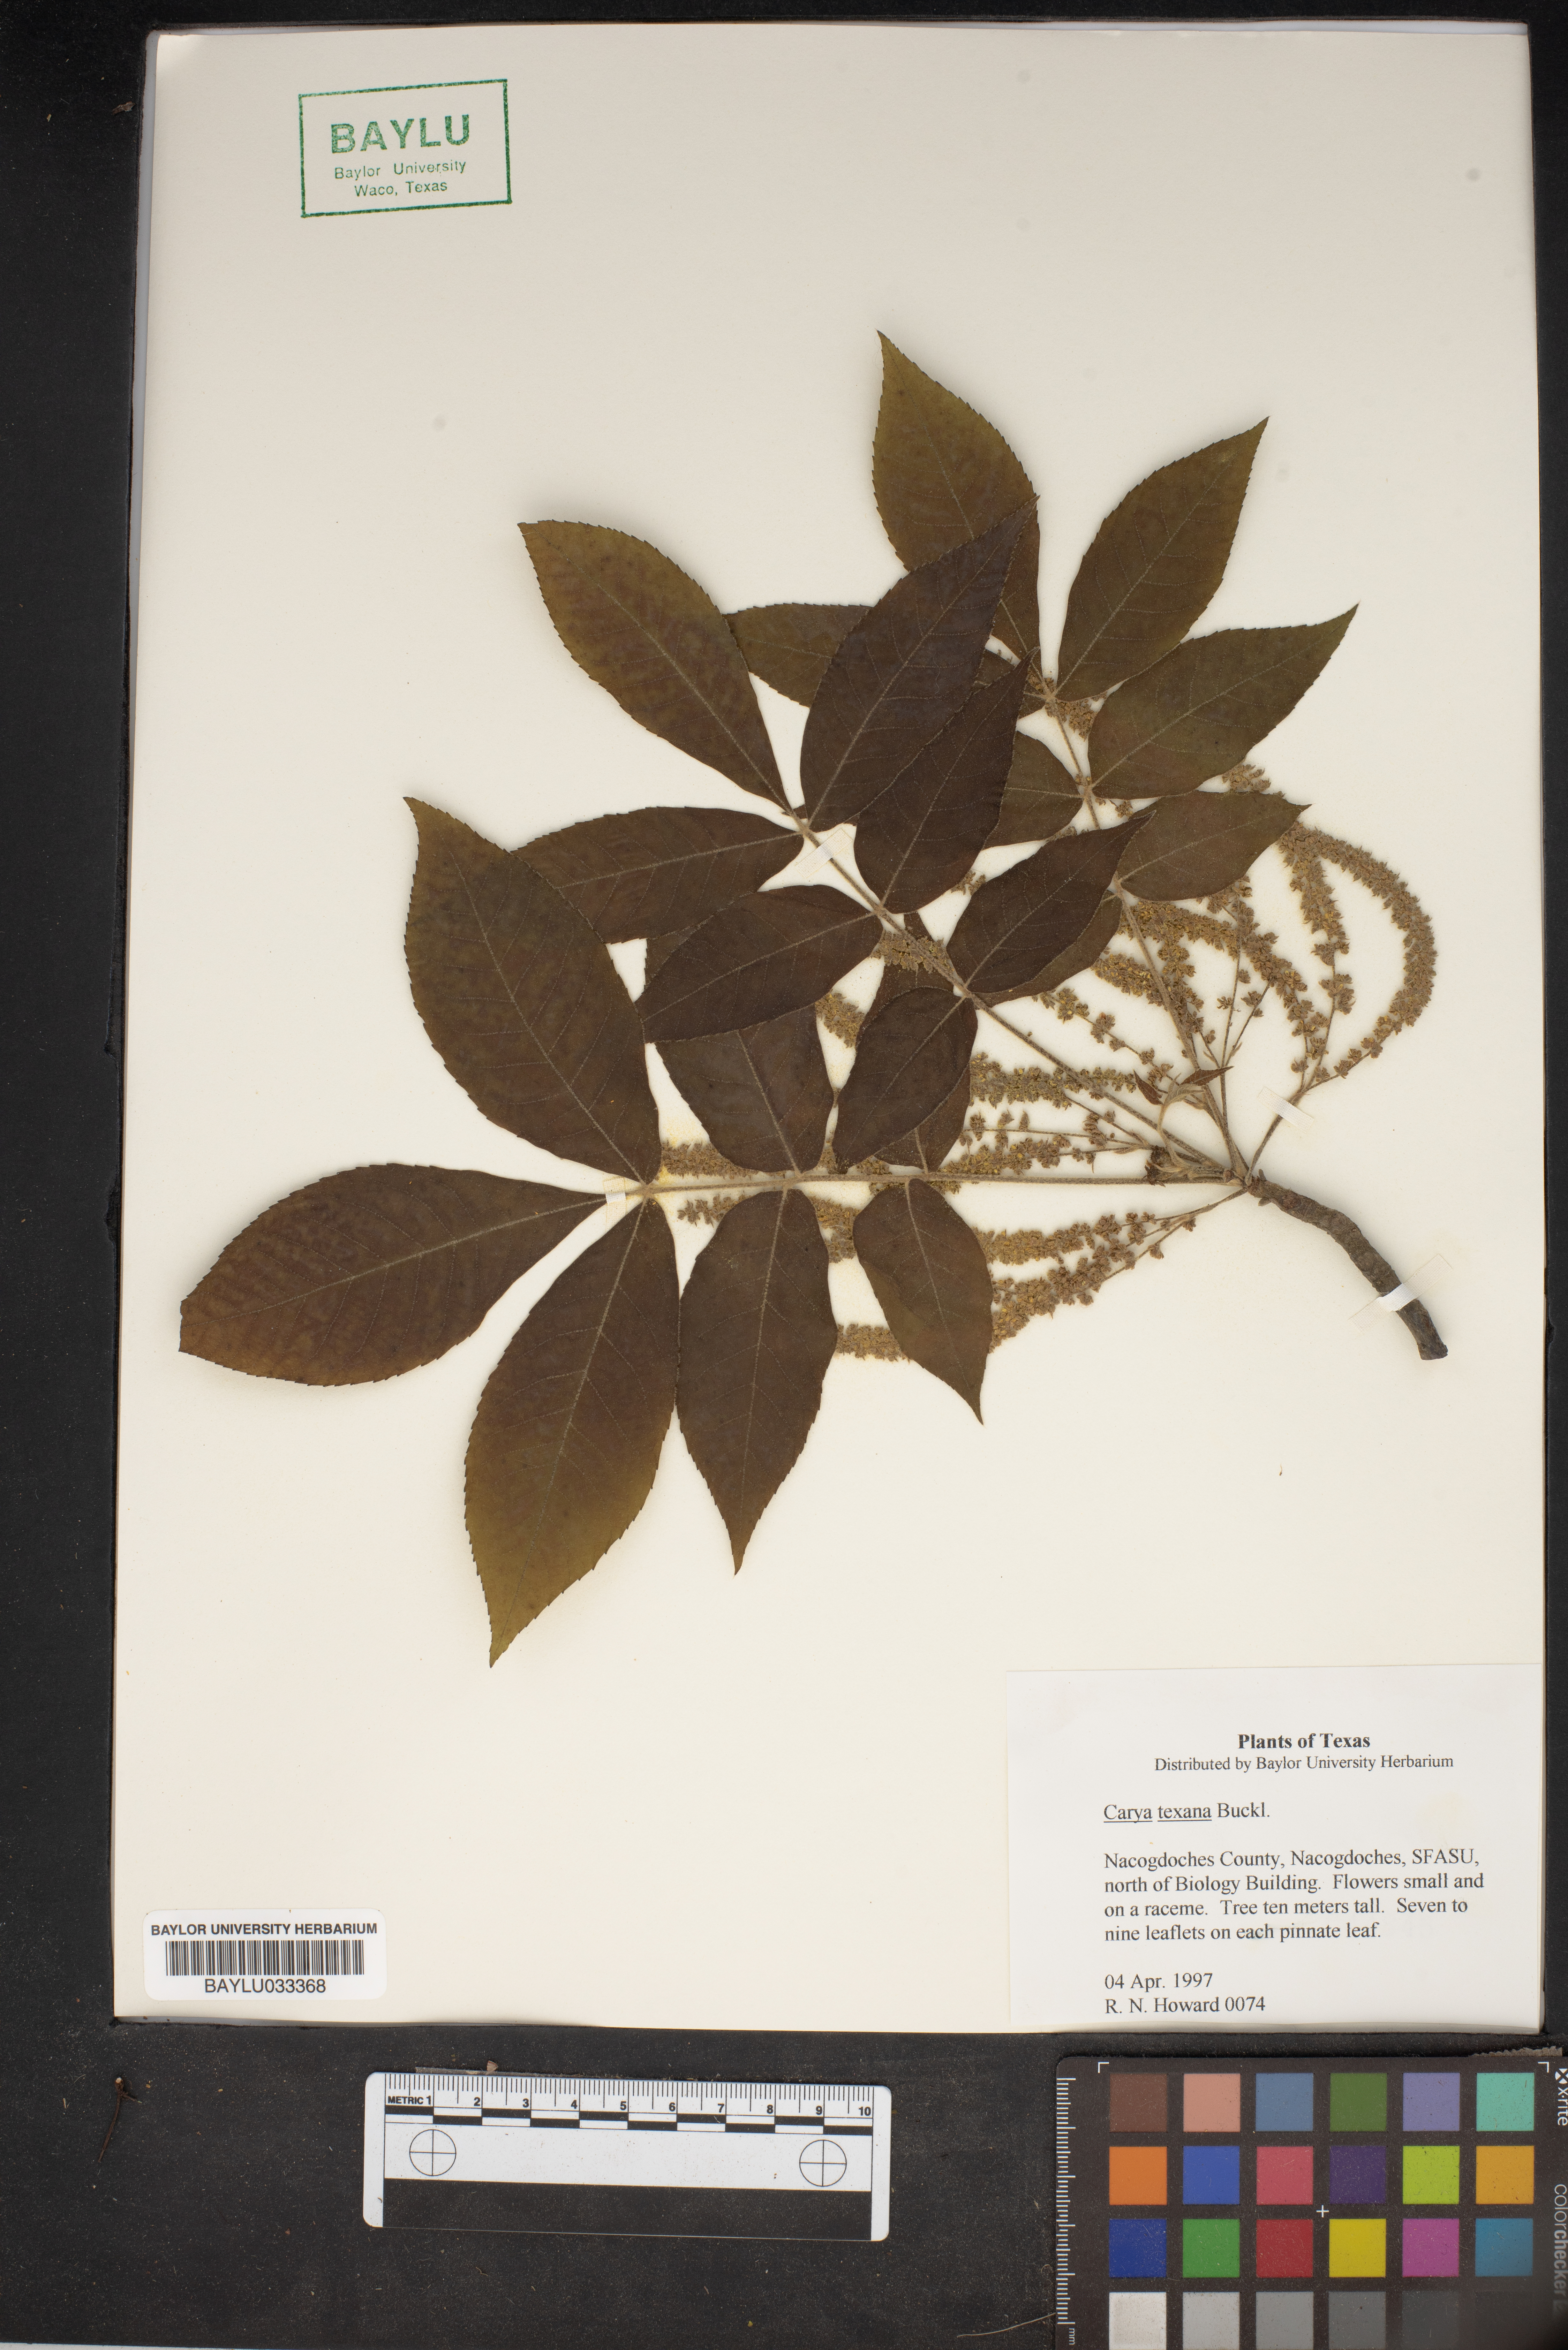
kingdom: Plantae
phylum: Tracheophyta
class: Magnoliopsida
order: Fagales
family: Juglandaceae
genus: Carya
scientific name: Carya texana
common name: Black hickory
